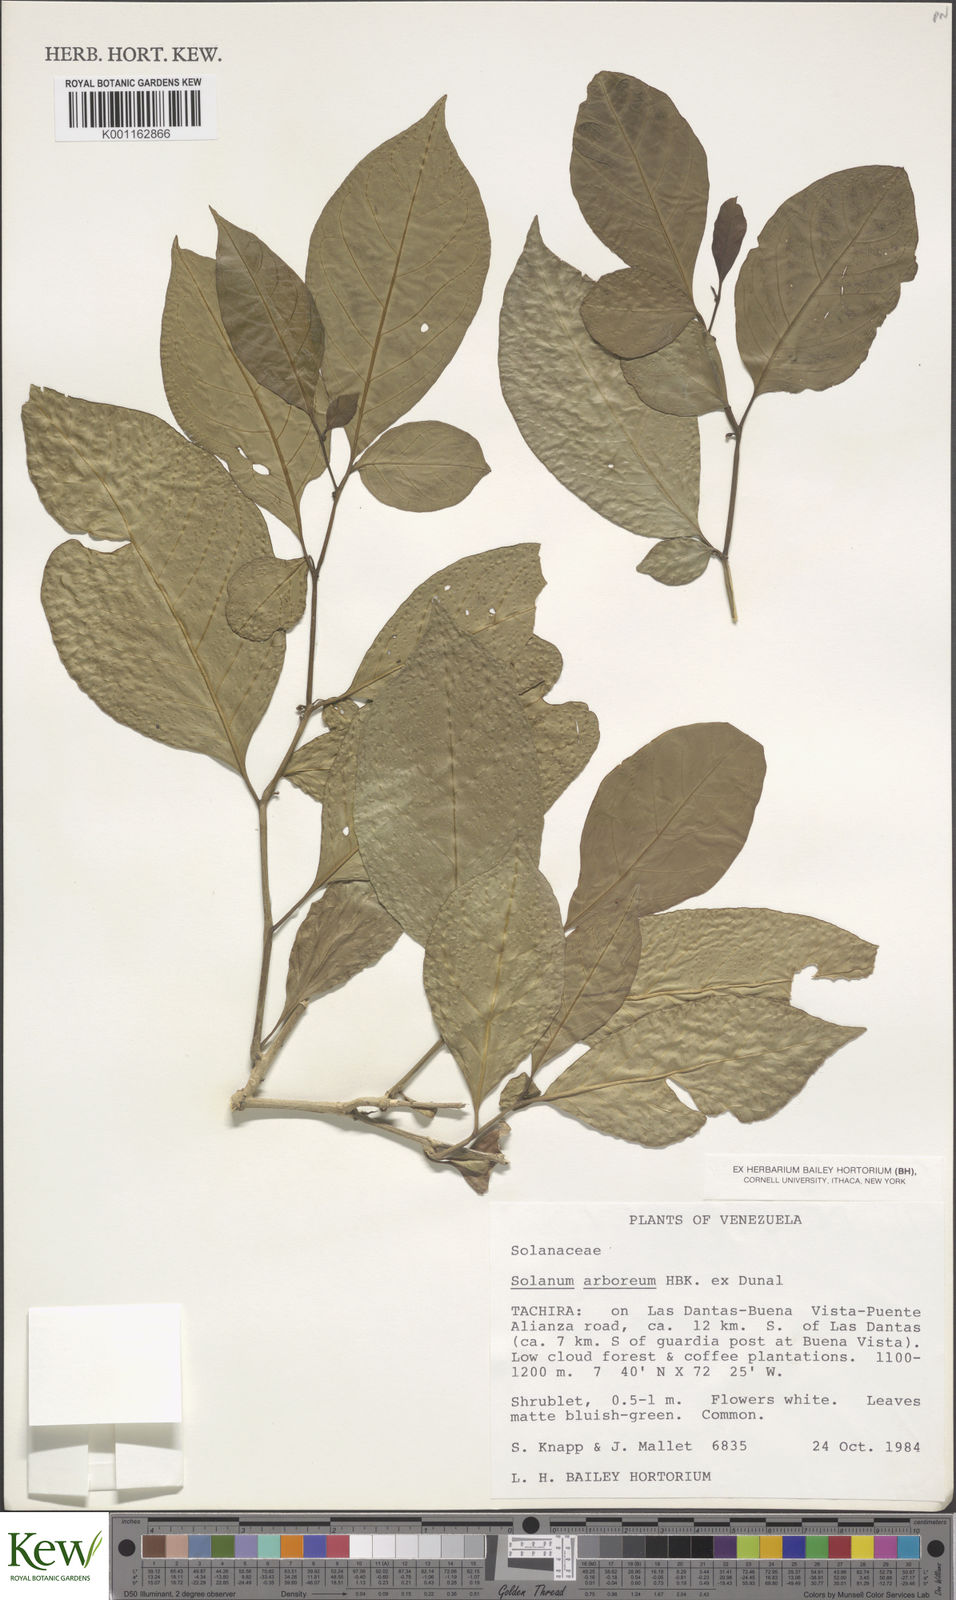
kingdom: Plantae
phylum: Tracheophyta
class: Magnoliopsida
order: Solanales
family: Solanaceae
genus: Solanum
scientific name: Solanum arboreum
